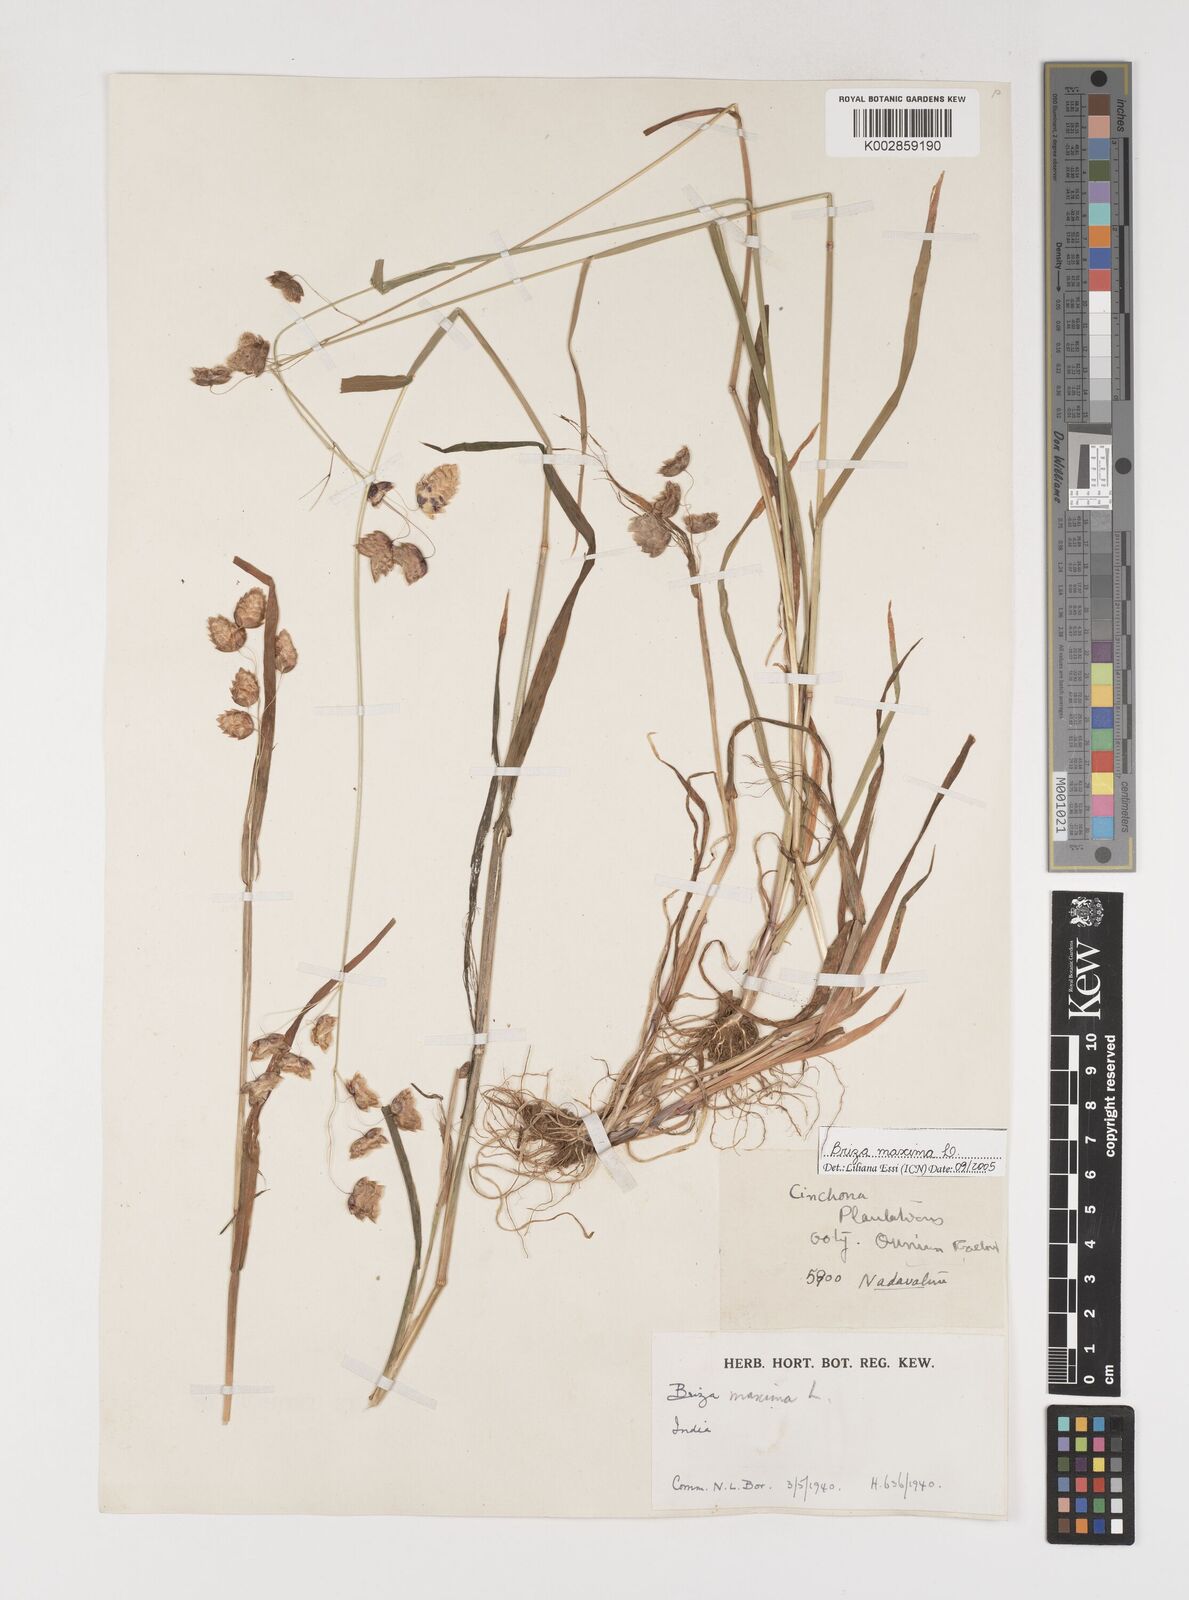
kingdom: Plantae
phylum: Tracheophyta
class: Liliopsida
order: Poales
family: Poaceae
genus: Briza
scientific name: Briza maxima
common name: Big quakinggrass
